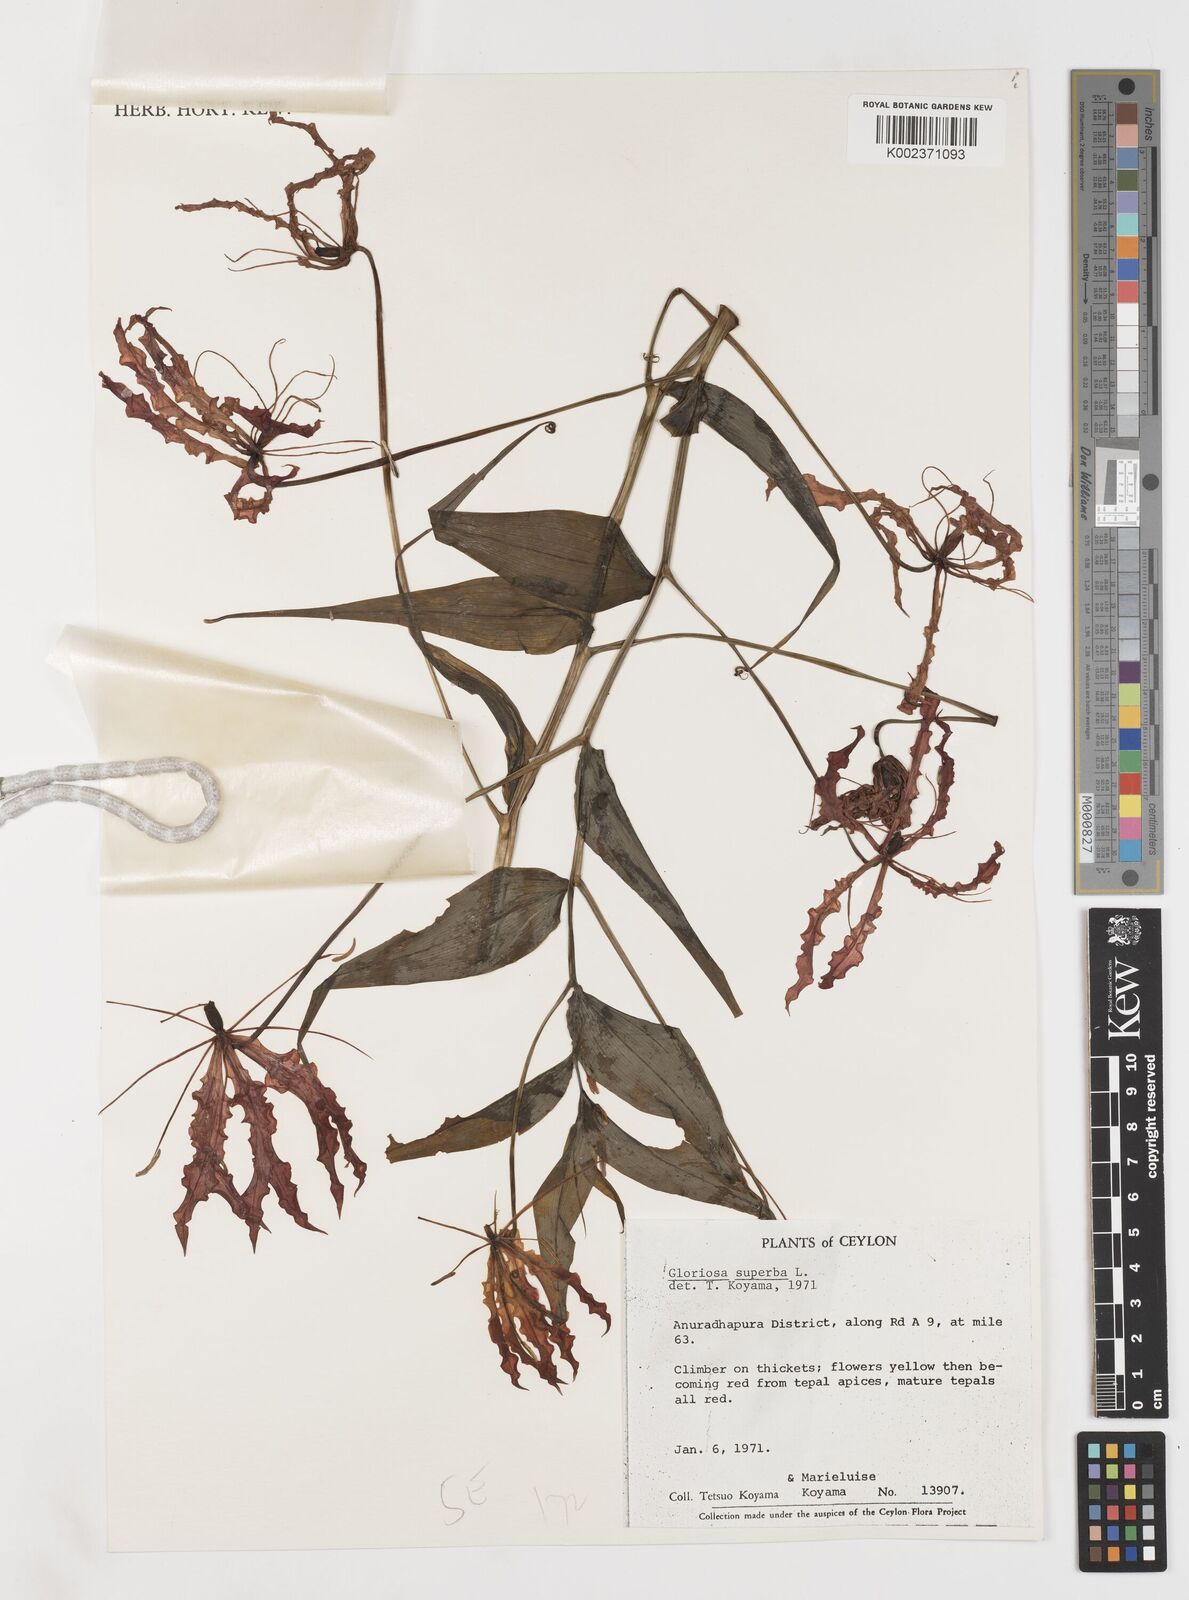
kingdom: Plantae
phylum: Tracheophyta
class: Liliopsida
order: Liliales
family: Colchicaceae
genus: Gloriosa
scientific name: Gloriosa superba
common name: Flame lily
